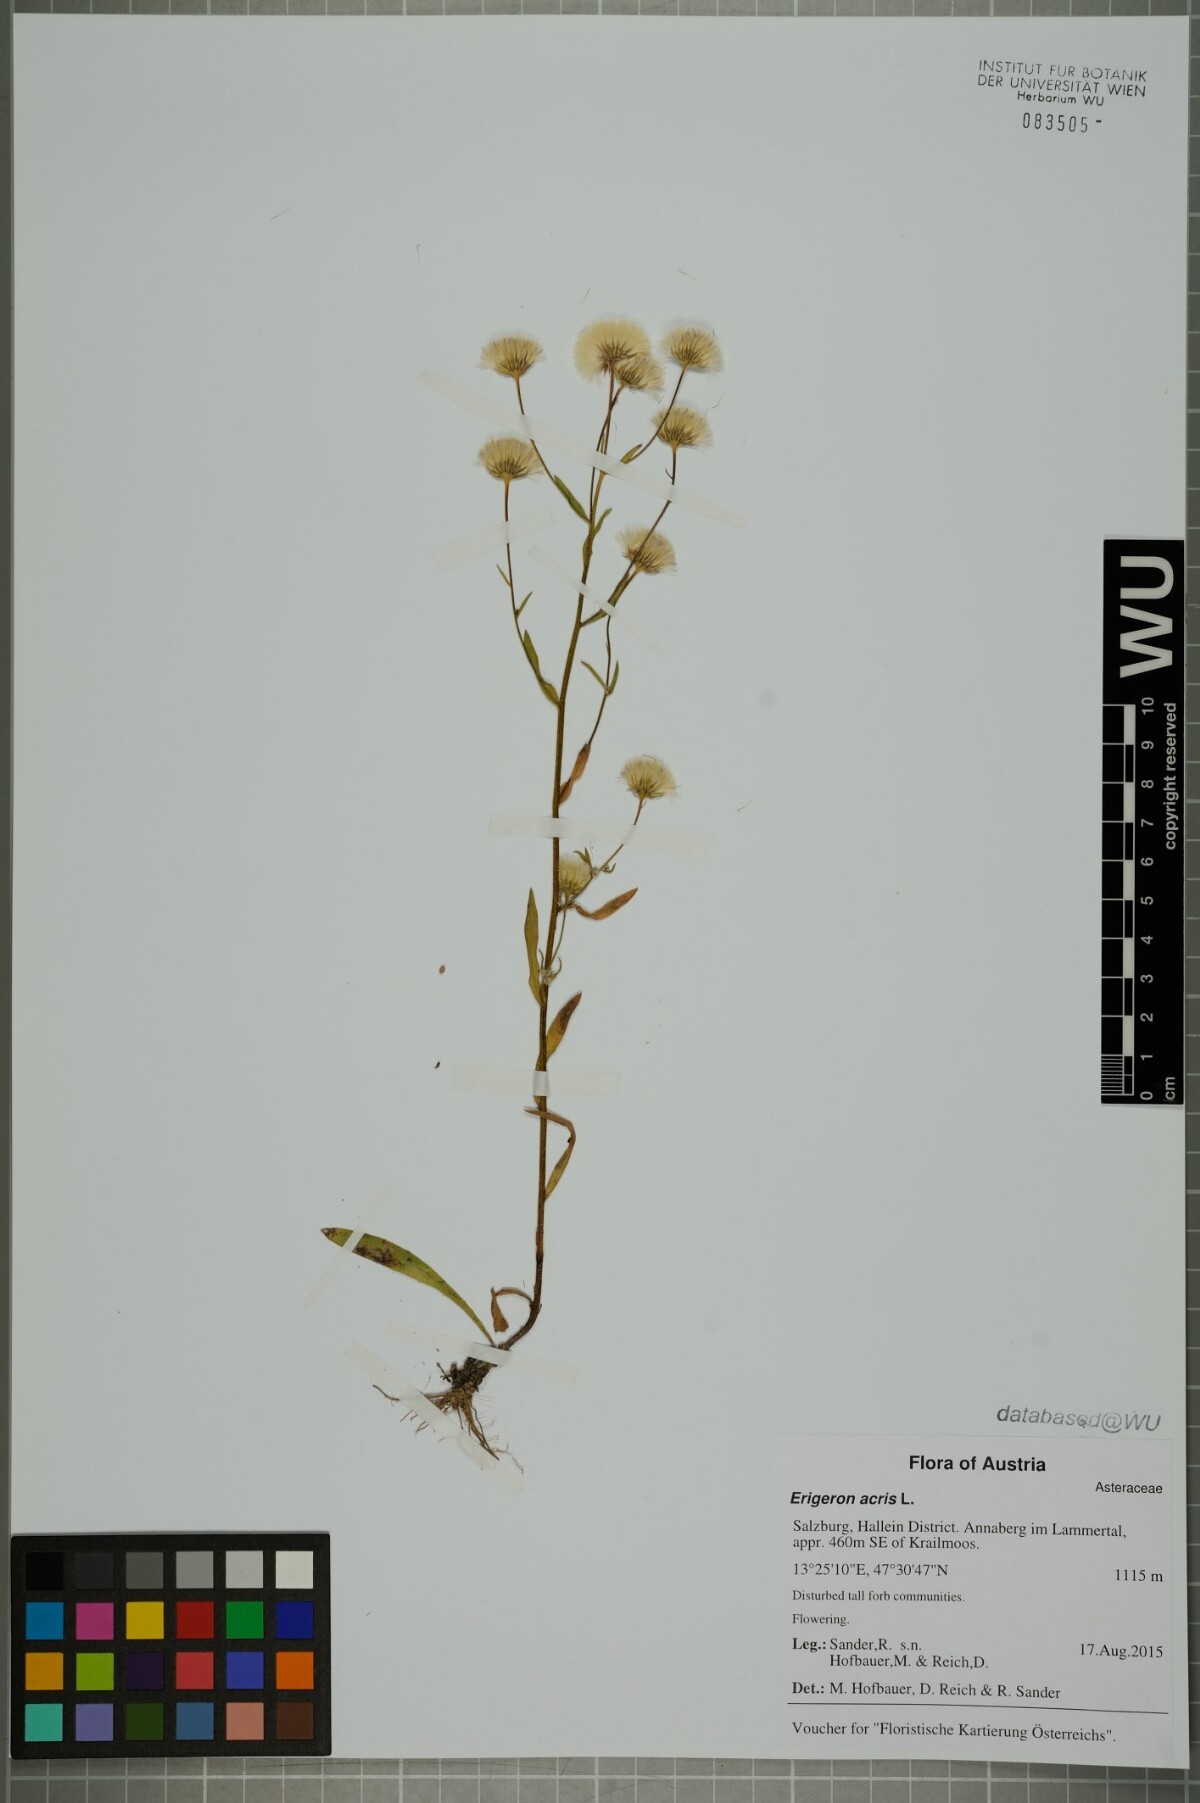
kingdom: Plantae
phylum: Tracheophyta
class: Magnoliopsida
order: Asterales
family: Asteraceae
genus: Erigeron
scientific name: Erigeron acris
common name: Blue fleabane
